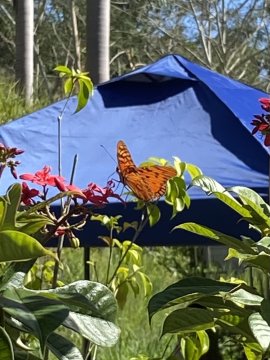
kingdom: Animalia
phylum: Arthropoda
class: Insecta
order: Lepidoptera
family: Nymphalidae
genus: Dione
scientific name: Dione vanillae
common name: Gulf Fritillary
